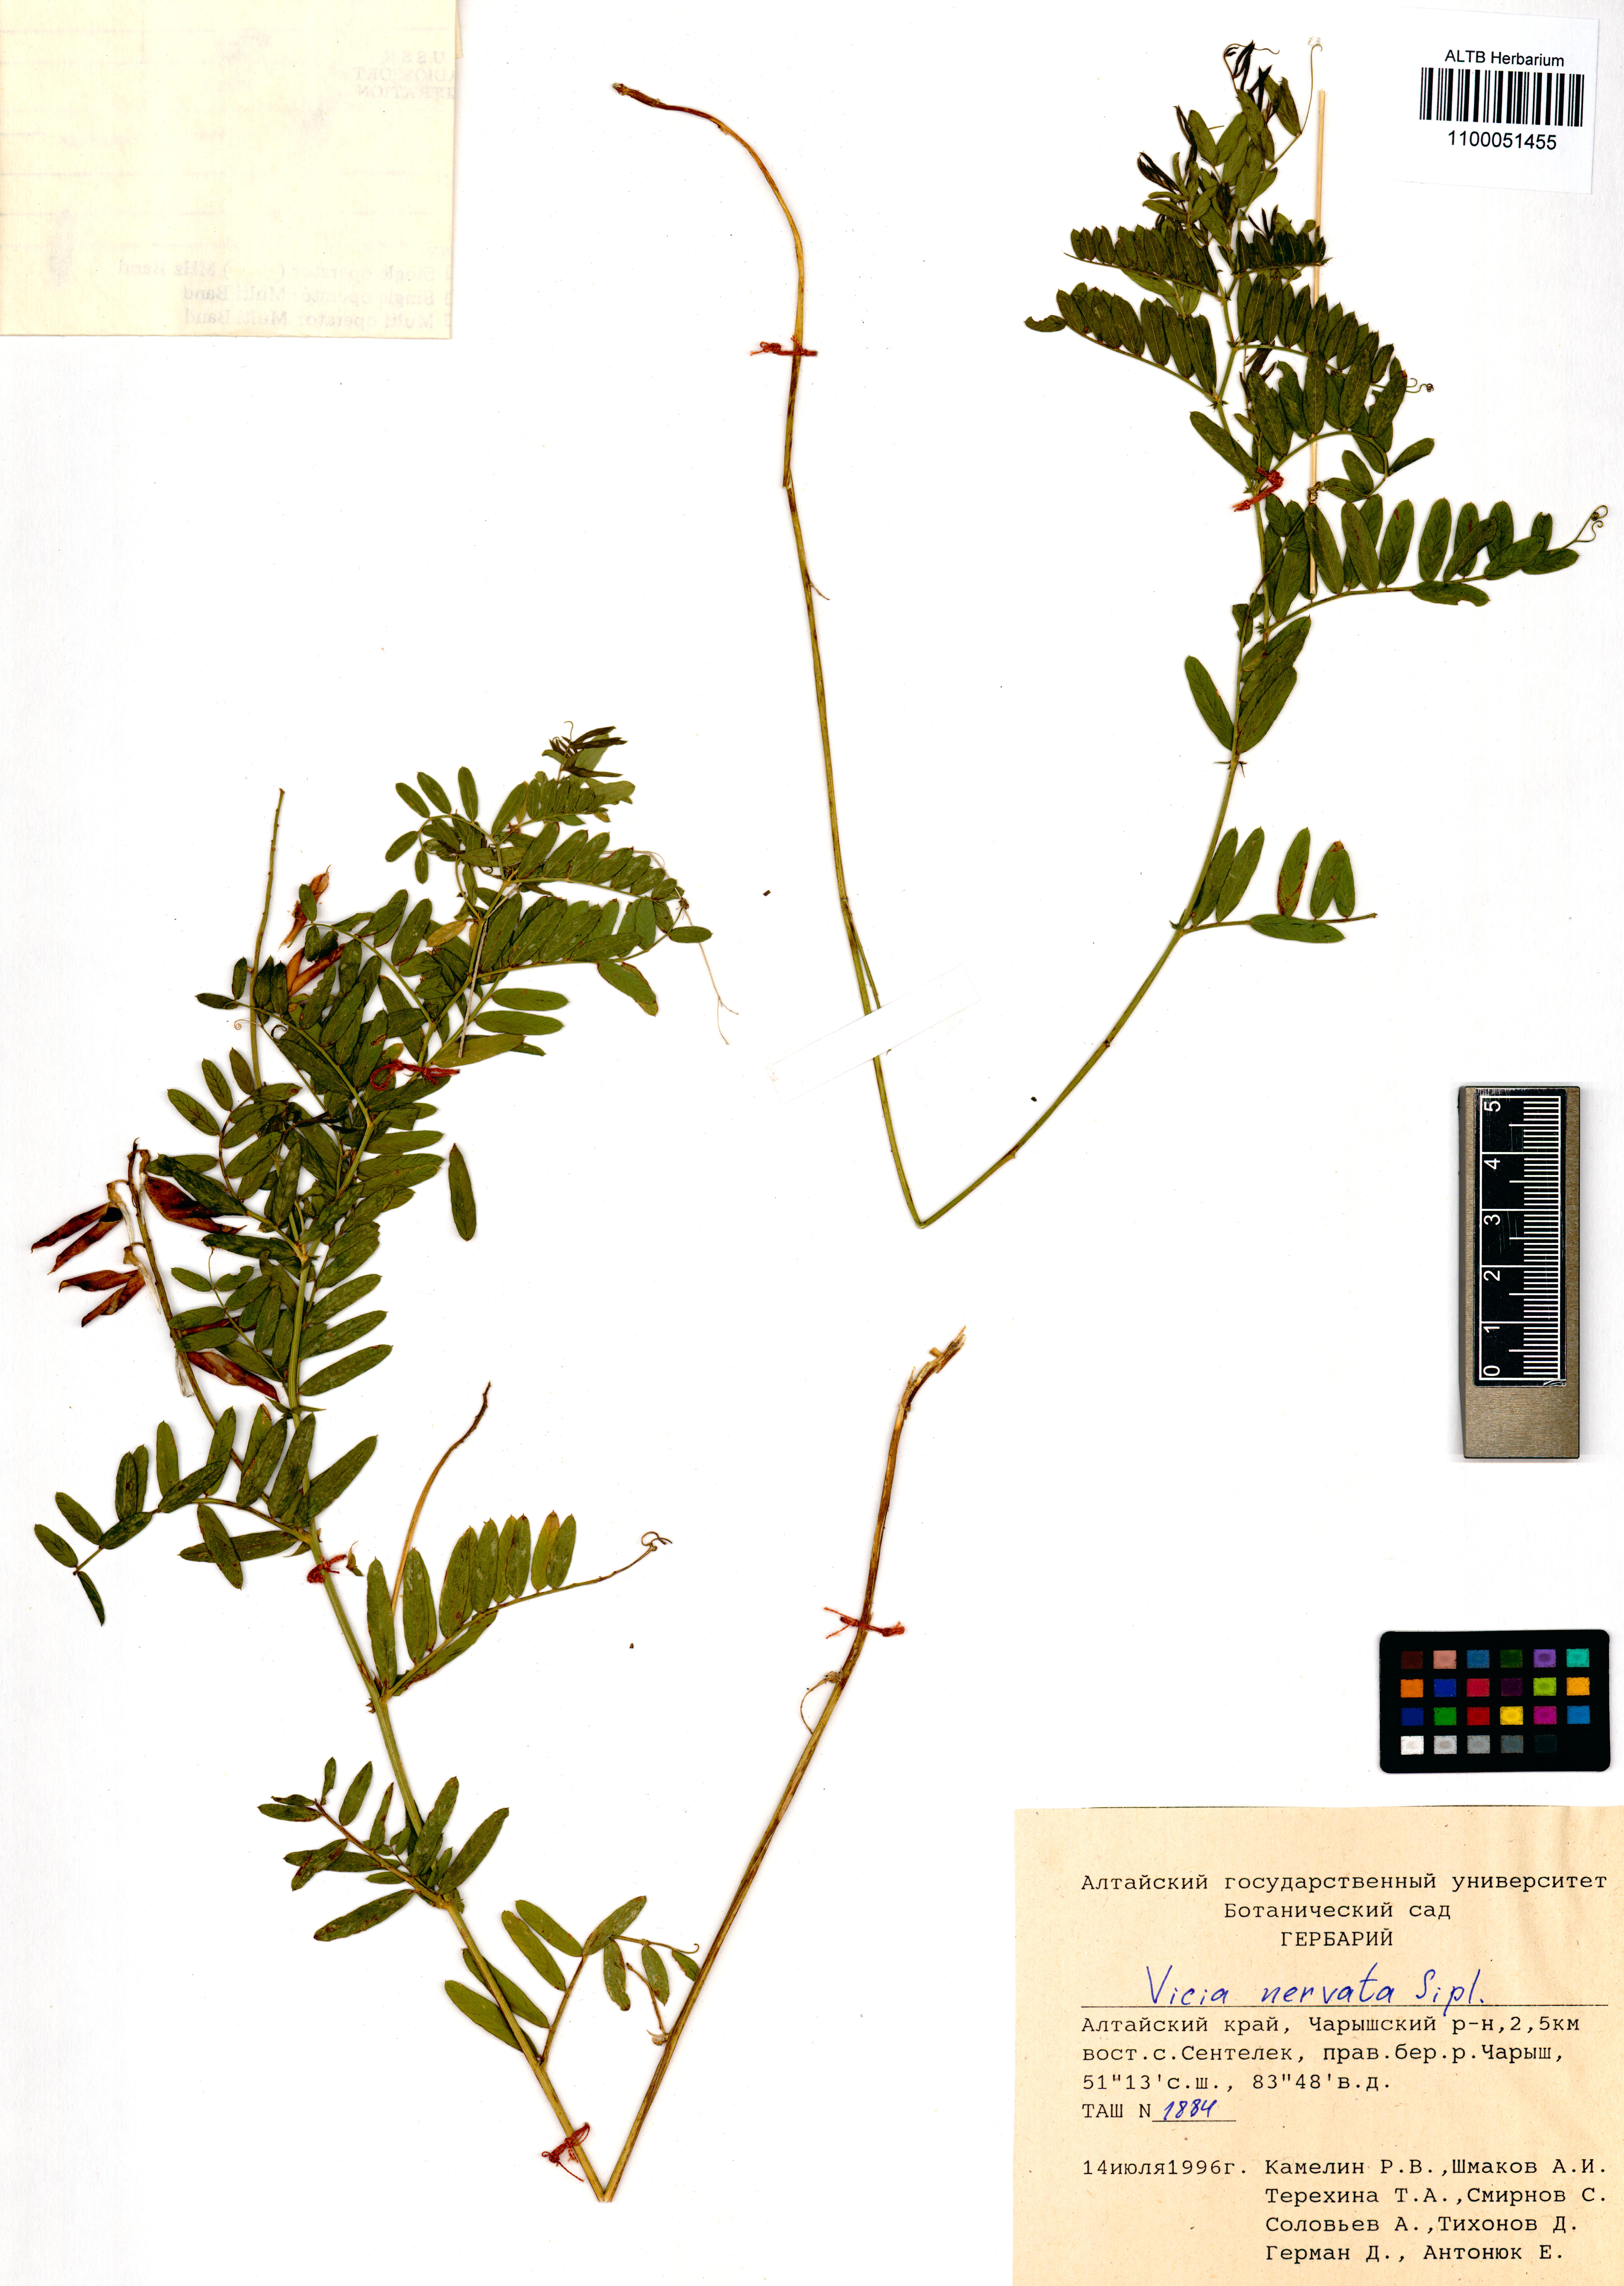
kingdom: Plantae
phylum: Tracheophyta
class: Magnoliopsida
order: Fabales
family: Fabaceae
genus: Vicia
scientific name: Vicia multicaulis
